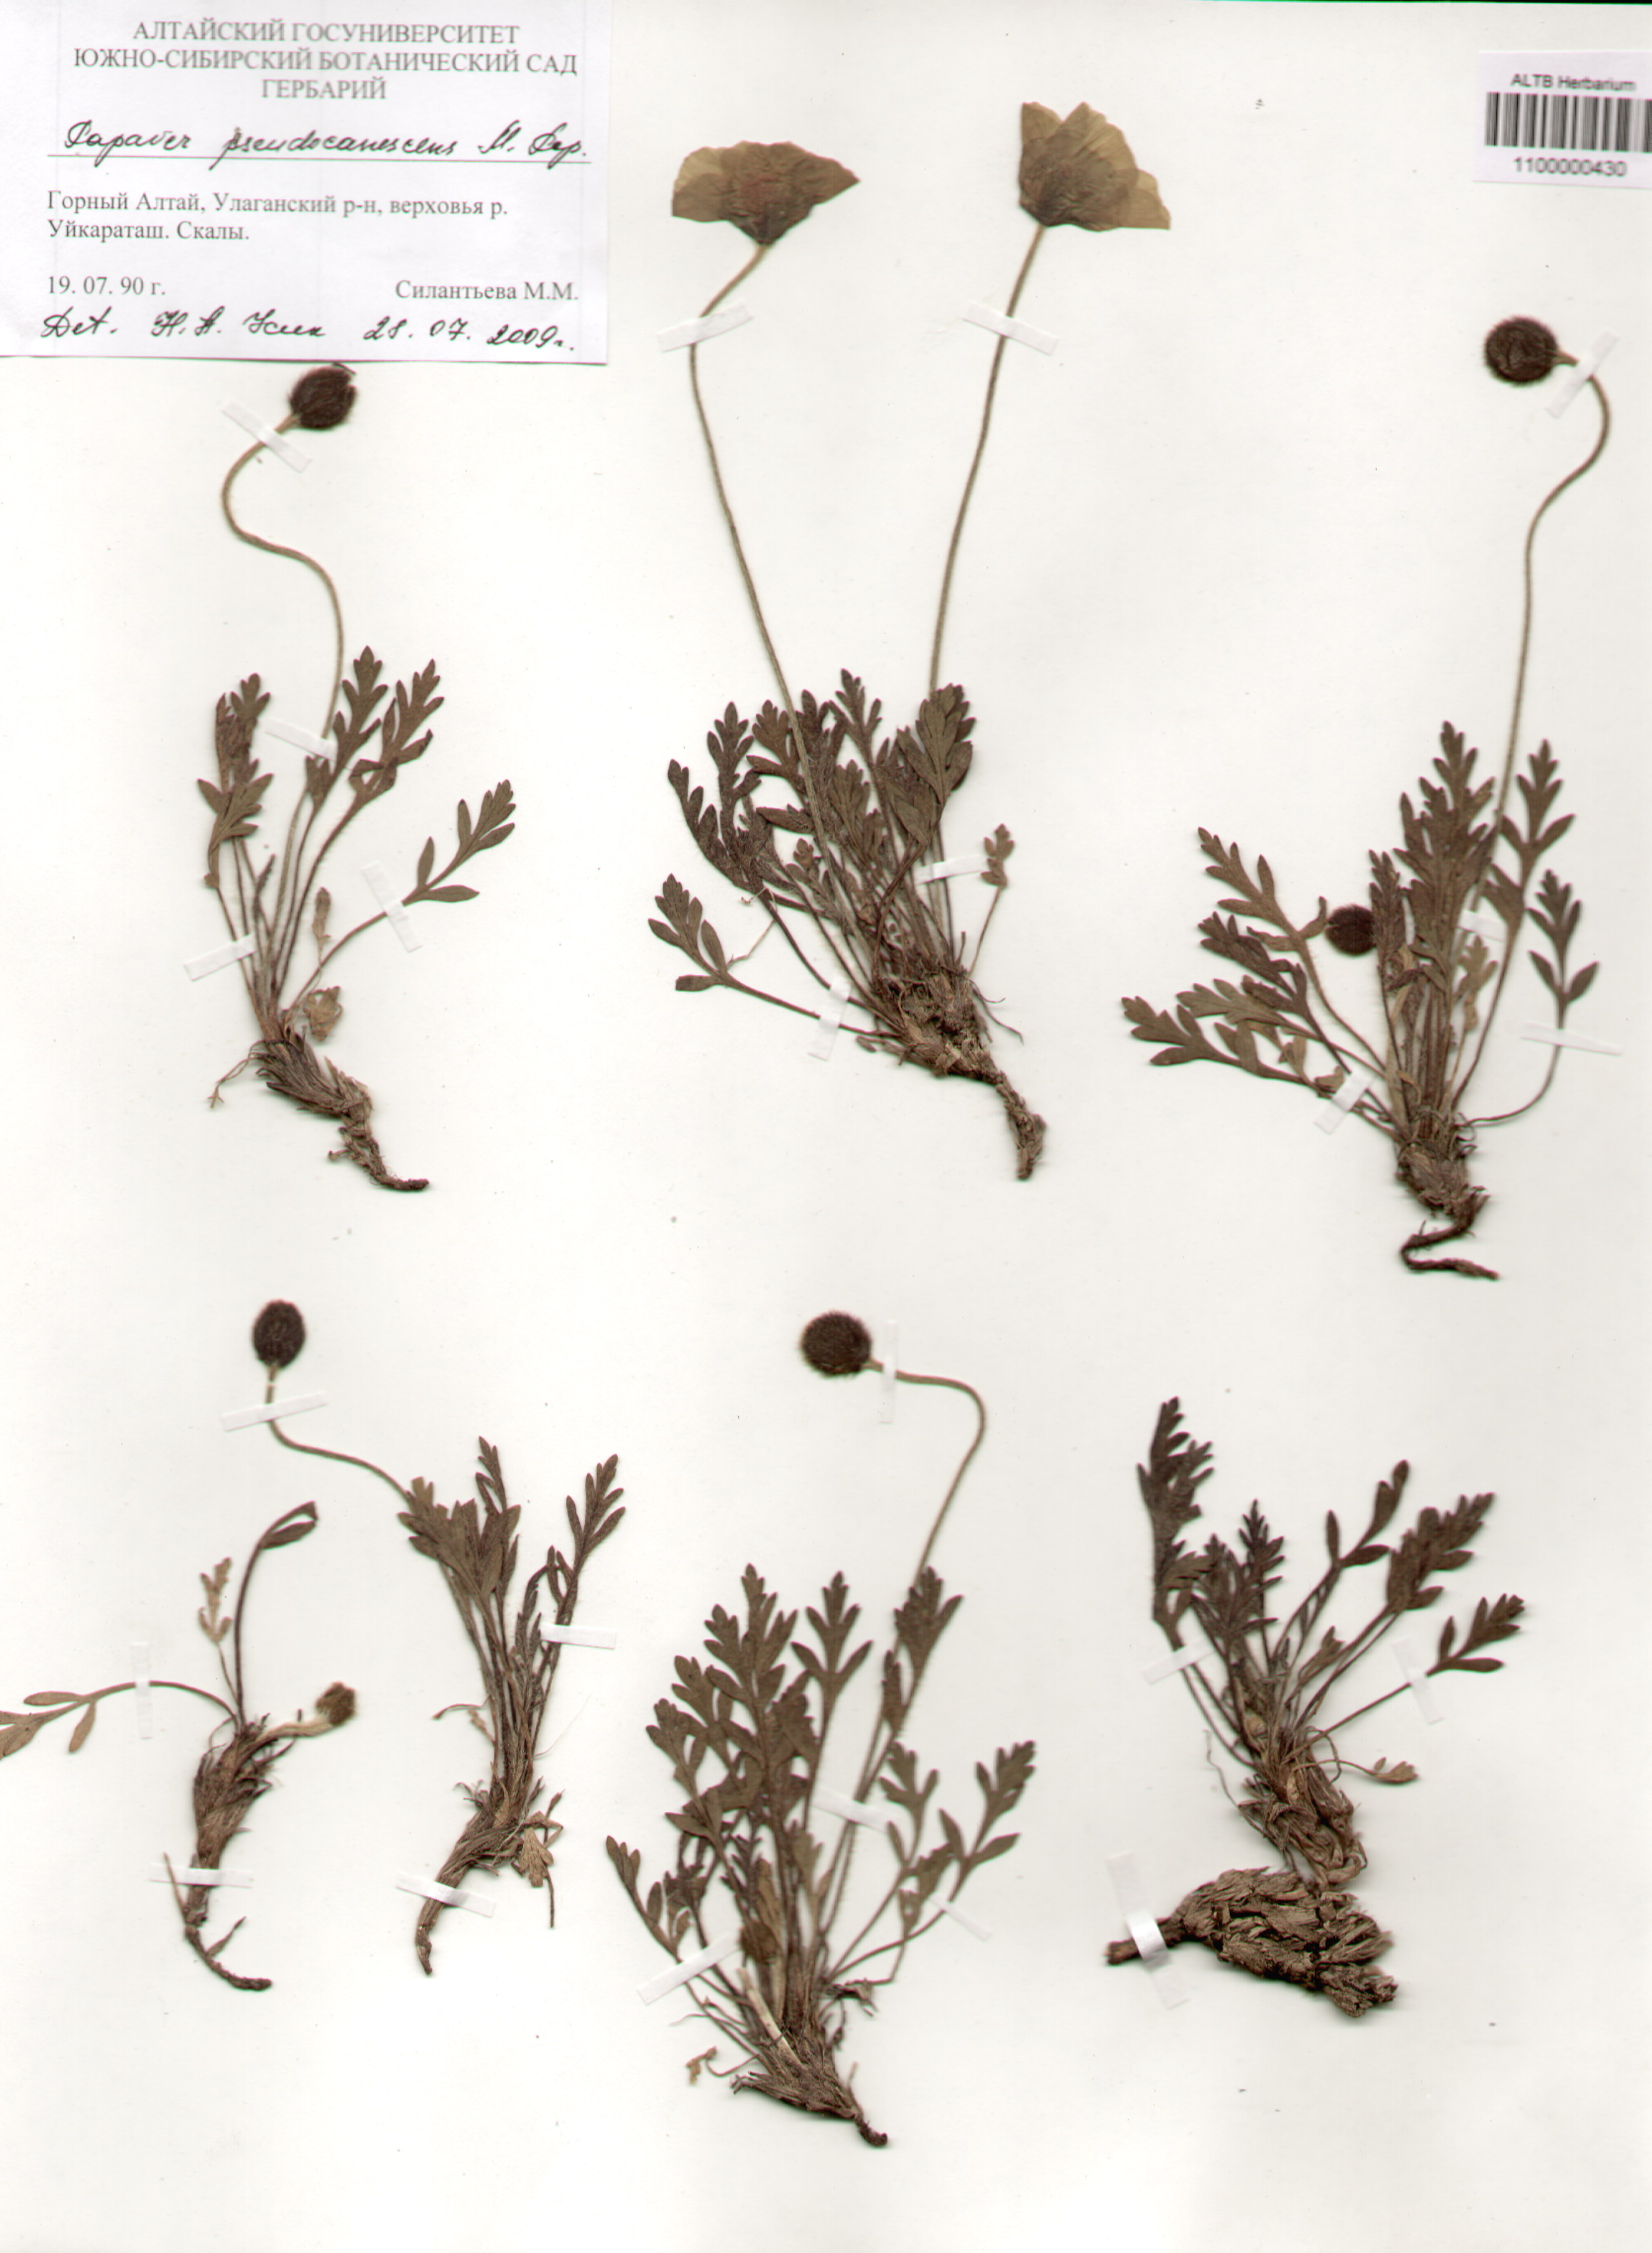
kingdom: Plantae
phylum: Tracheophyta
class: Magnoliopsida
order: Ranunculales
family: Papaveraceae
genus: Papaver
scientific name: Papaver canescens
